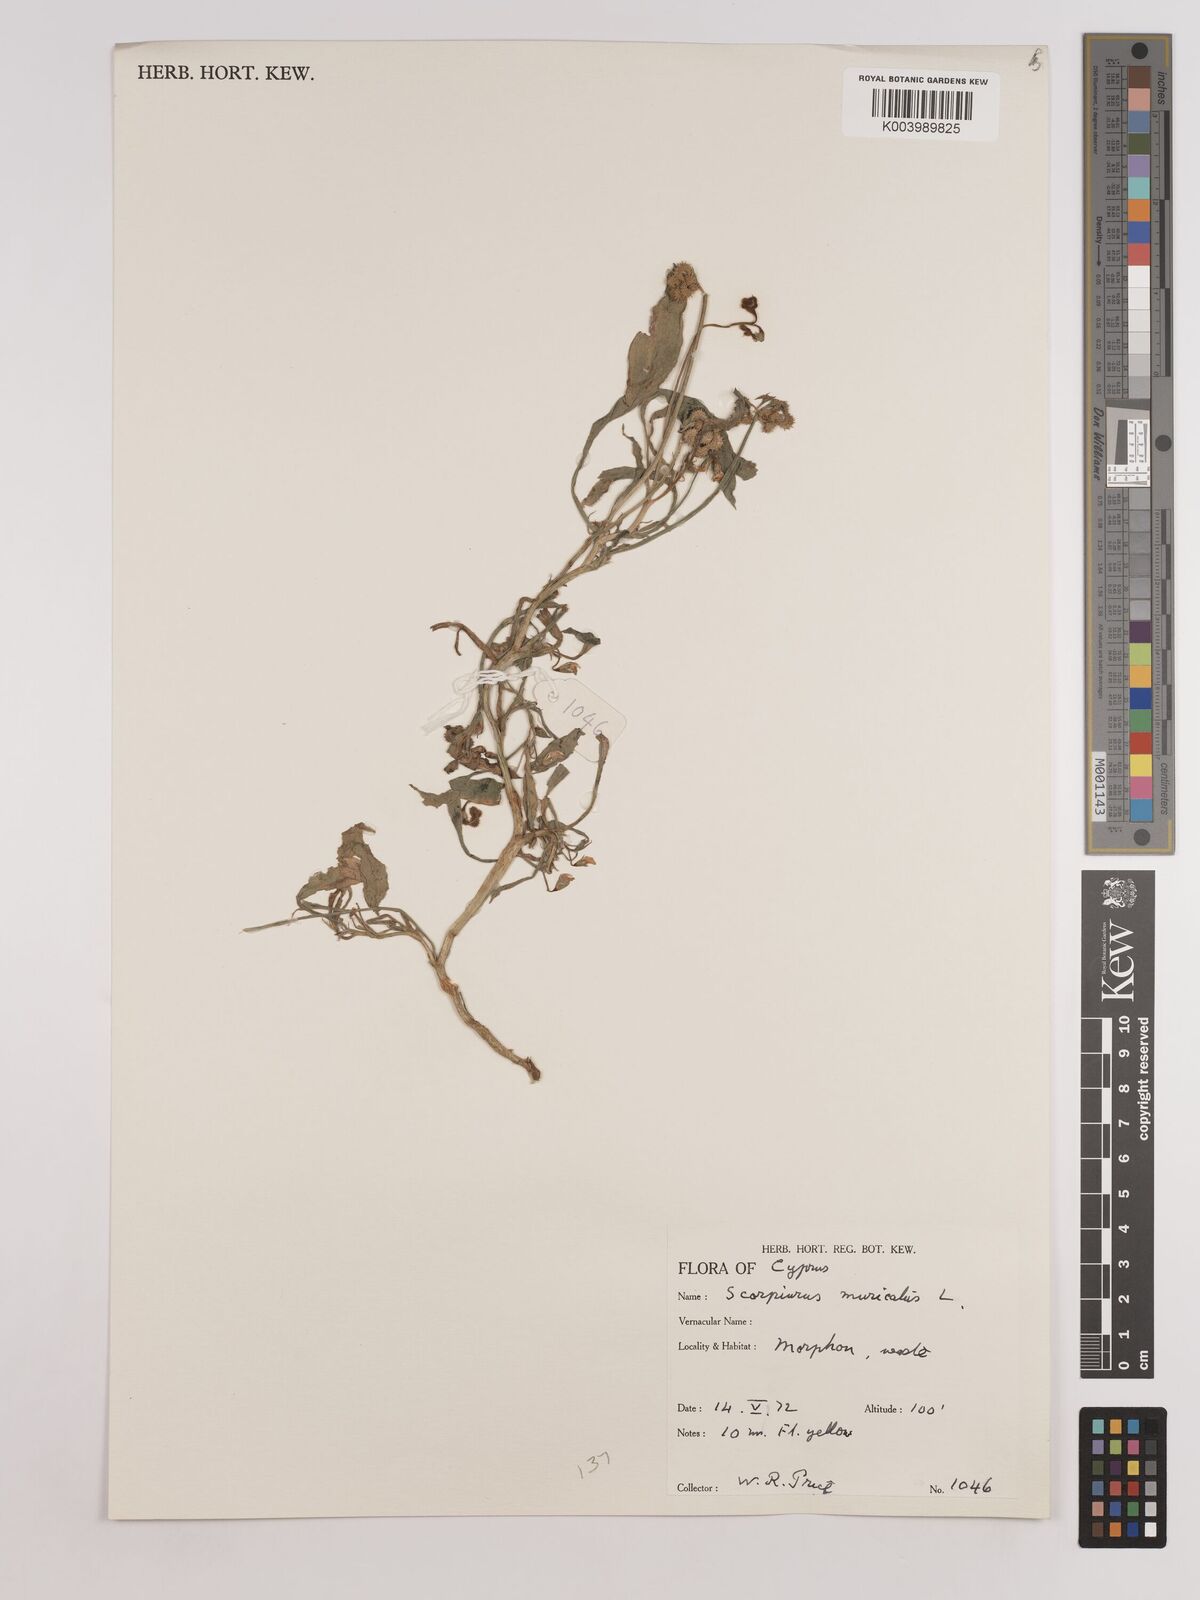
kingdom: Plantae
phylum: Tracheophyta
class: Magnoliopsida
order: Fabales
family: Fabaceae
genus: Scorpiurus
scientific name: Scorpiurus muricatus
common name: Caterpillar-plant
